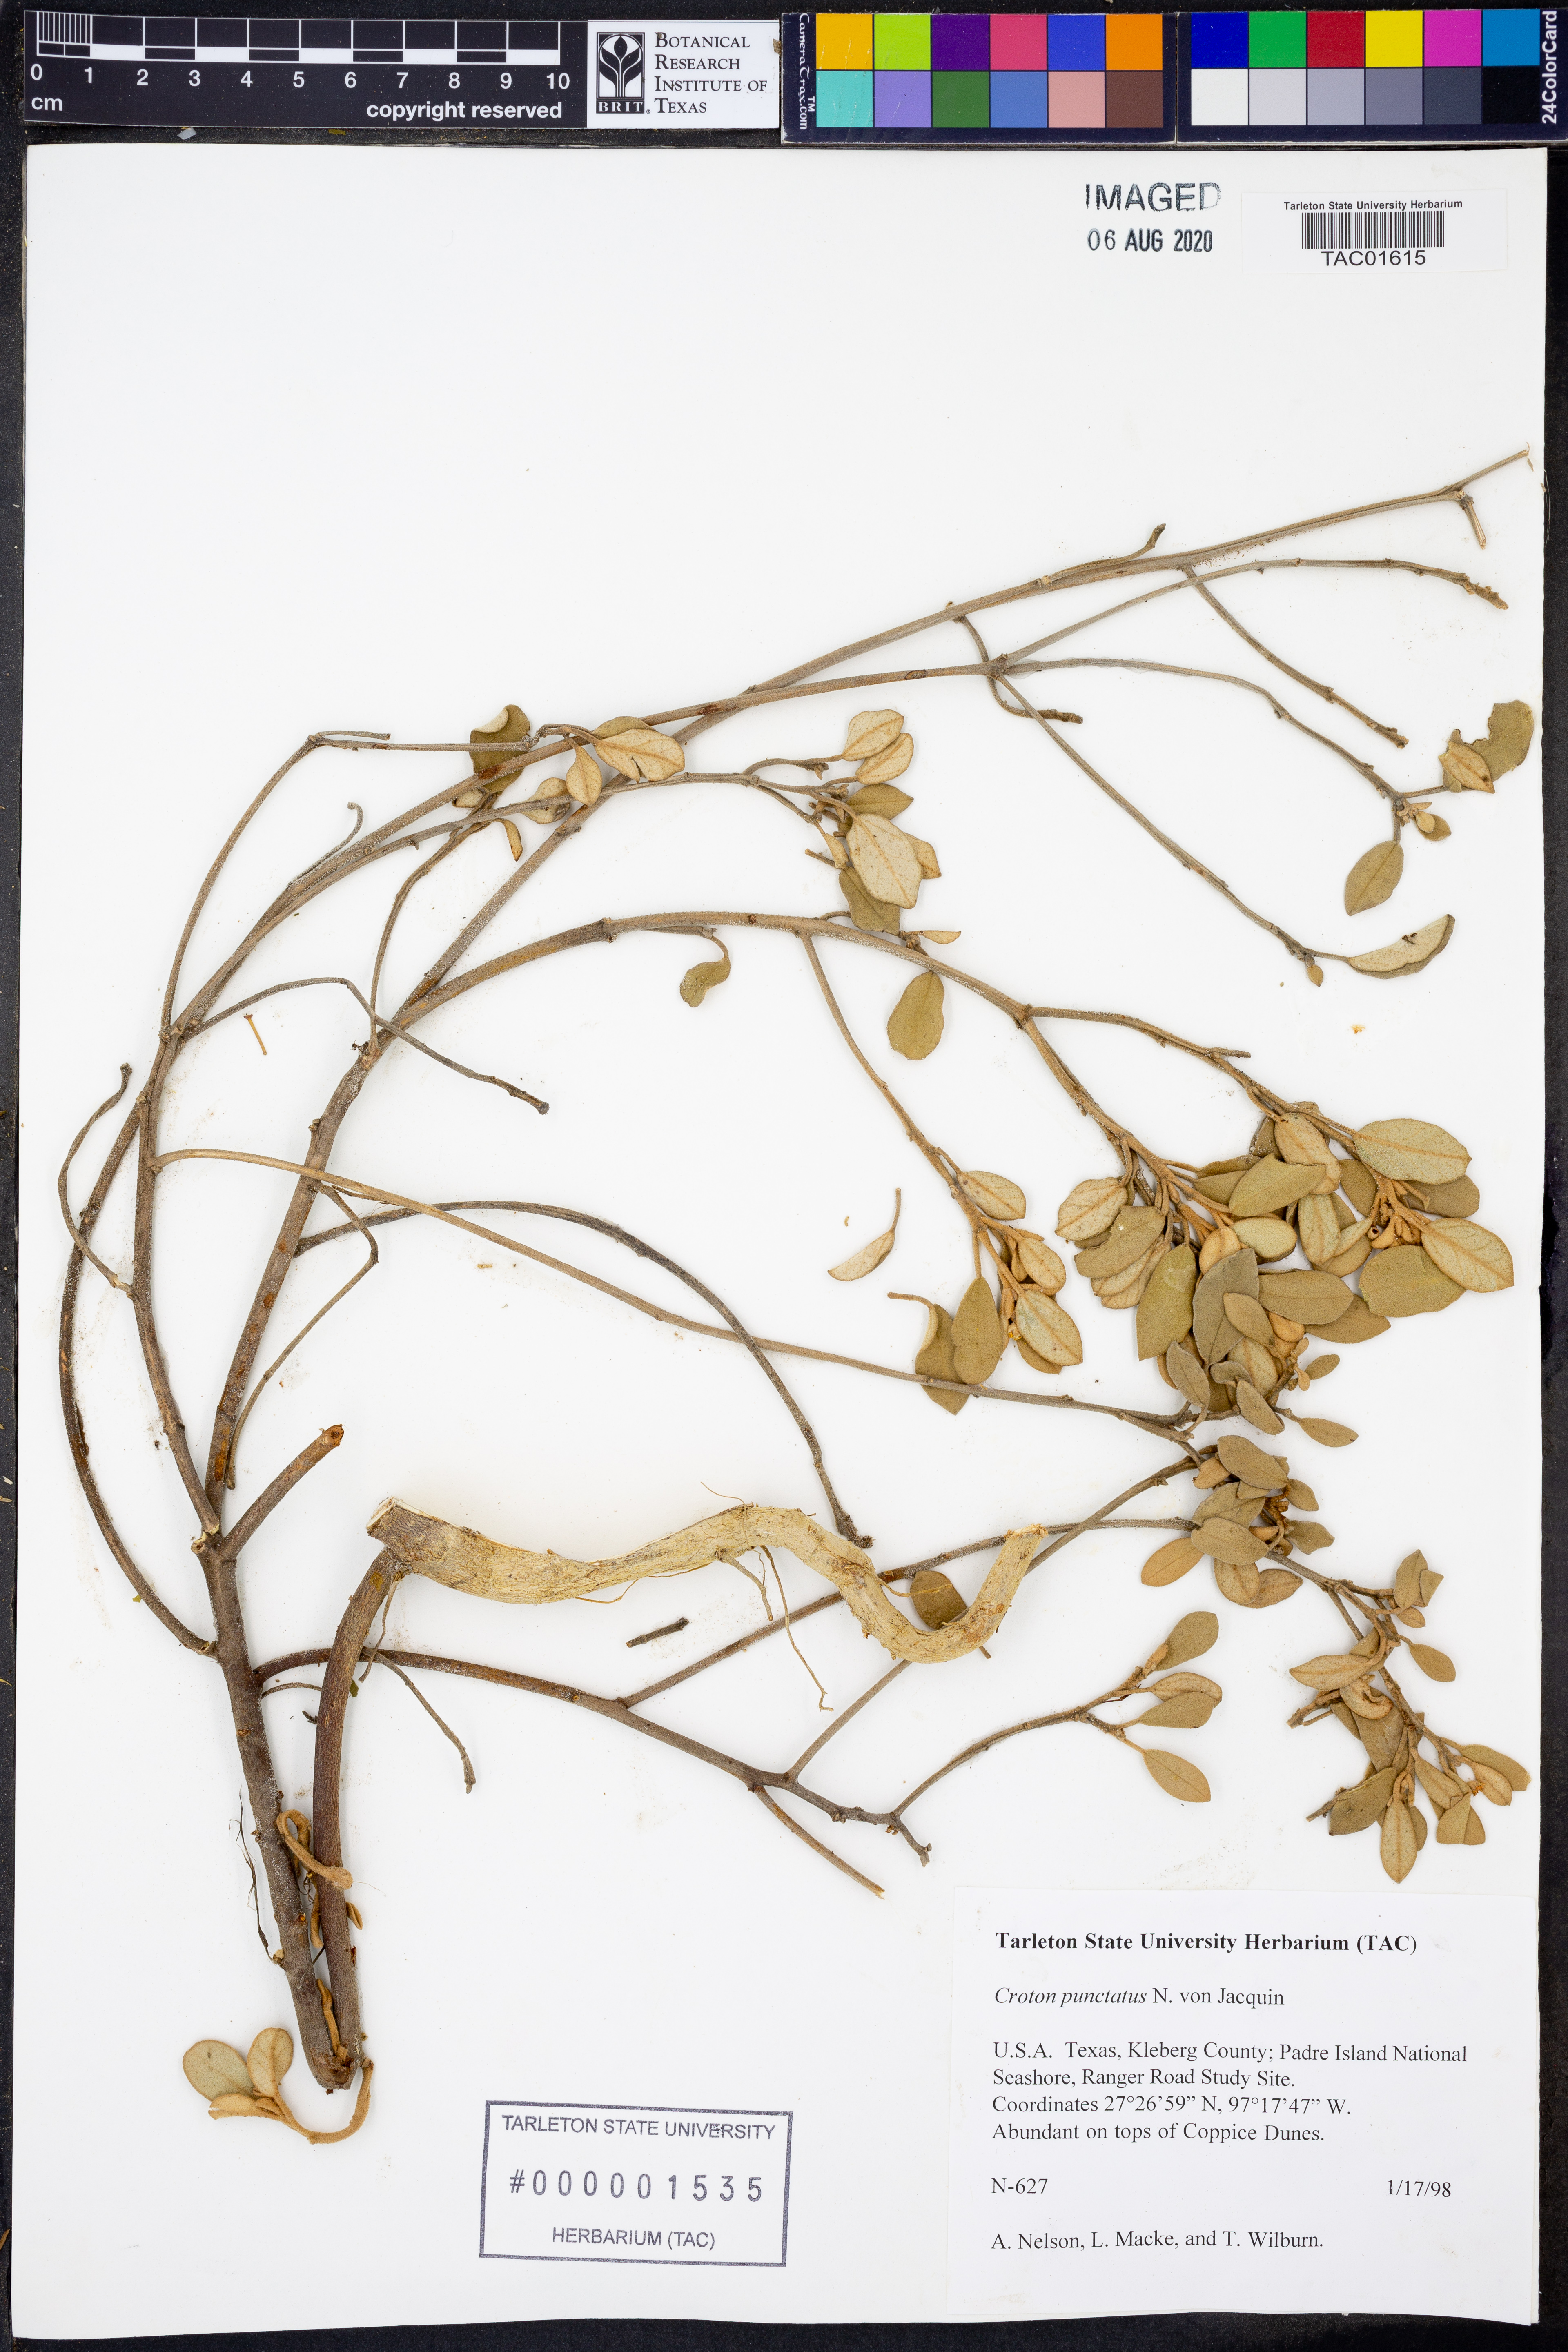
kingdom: Plantae
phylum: Tracheophyta
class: Magnoliopsida
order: Malpighiales
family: Euphorbiaceae
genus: Croton
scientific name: Croton punctatus
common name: Beach-tea
